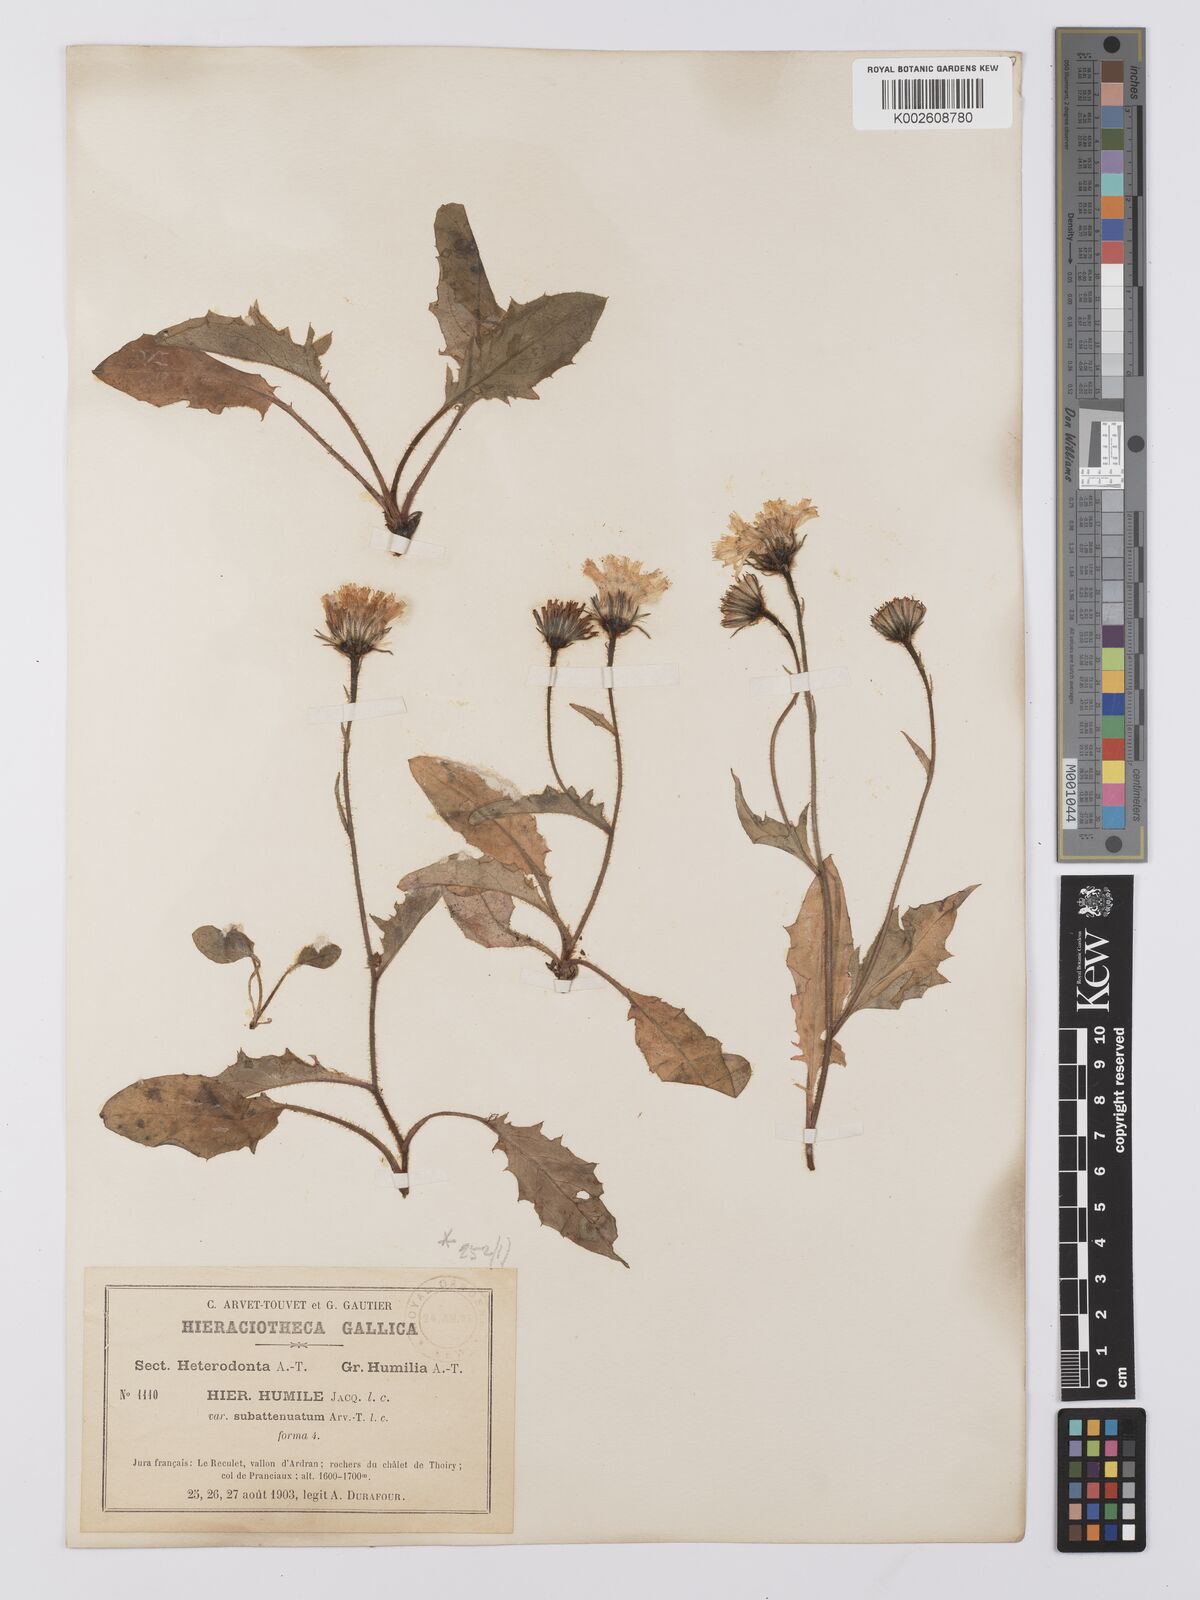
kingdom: Plantae
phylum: Tracheophyta
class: Magnoliopsida
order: Asterales
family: Asteraceae
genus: Hieracium
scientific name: Hieracium humile
